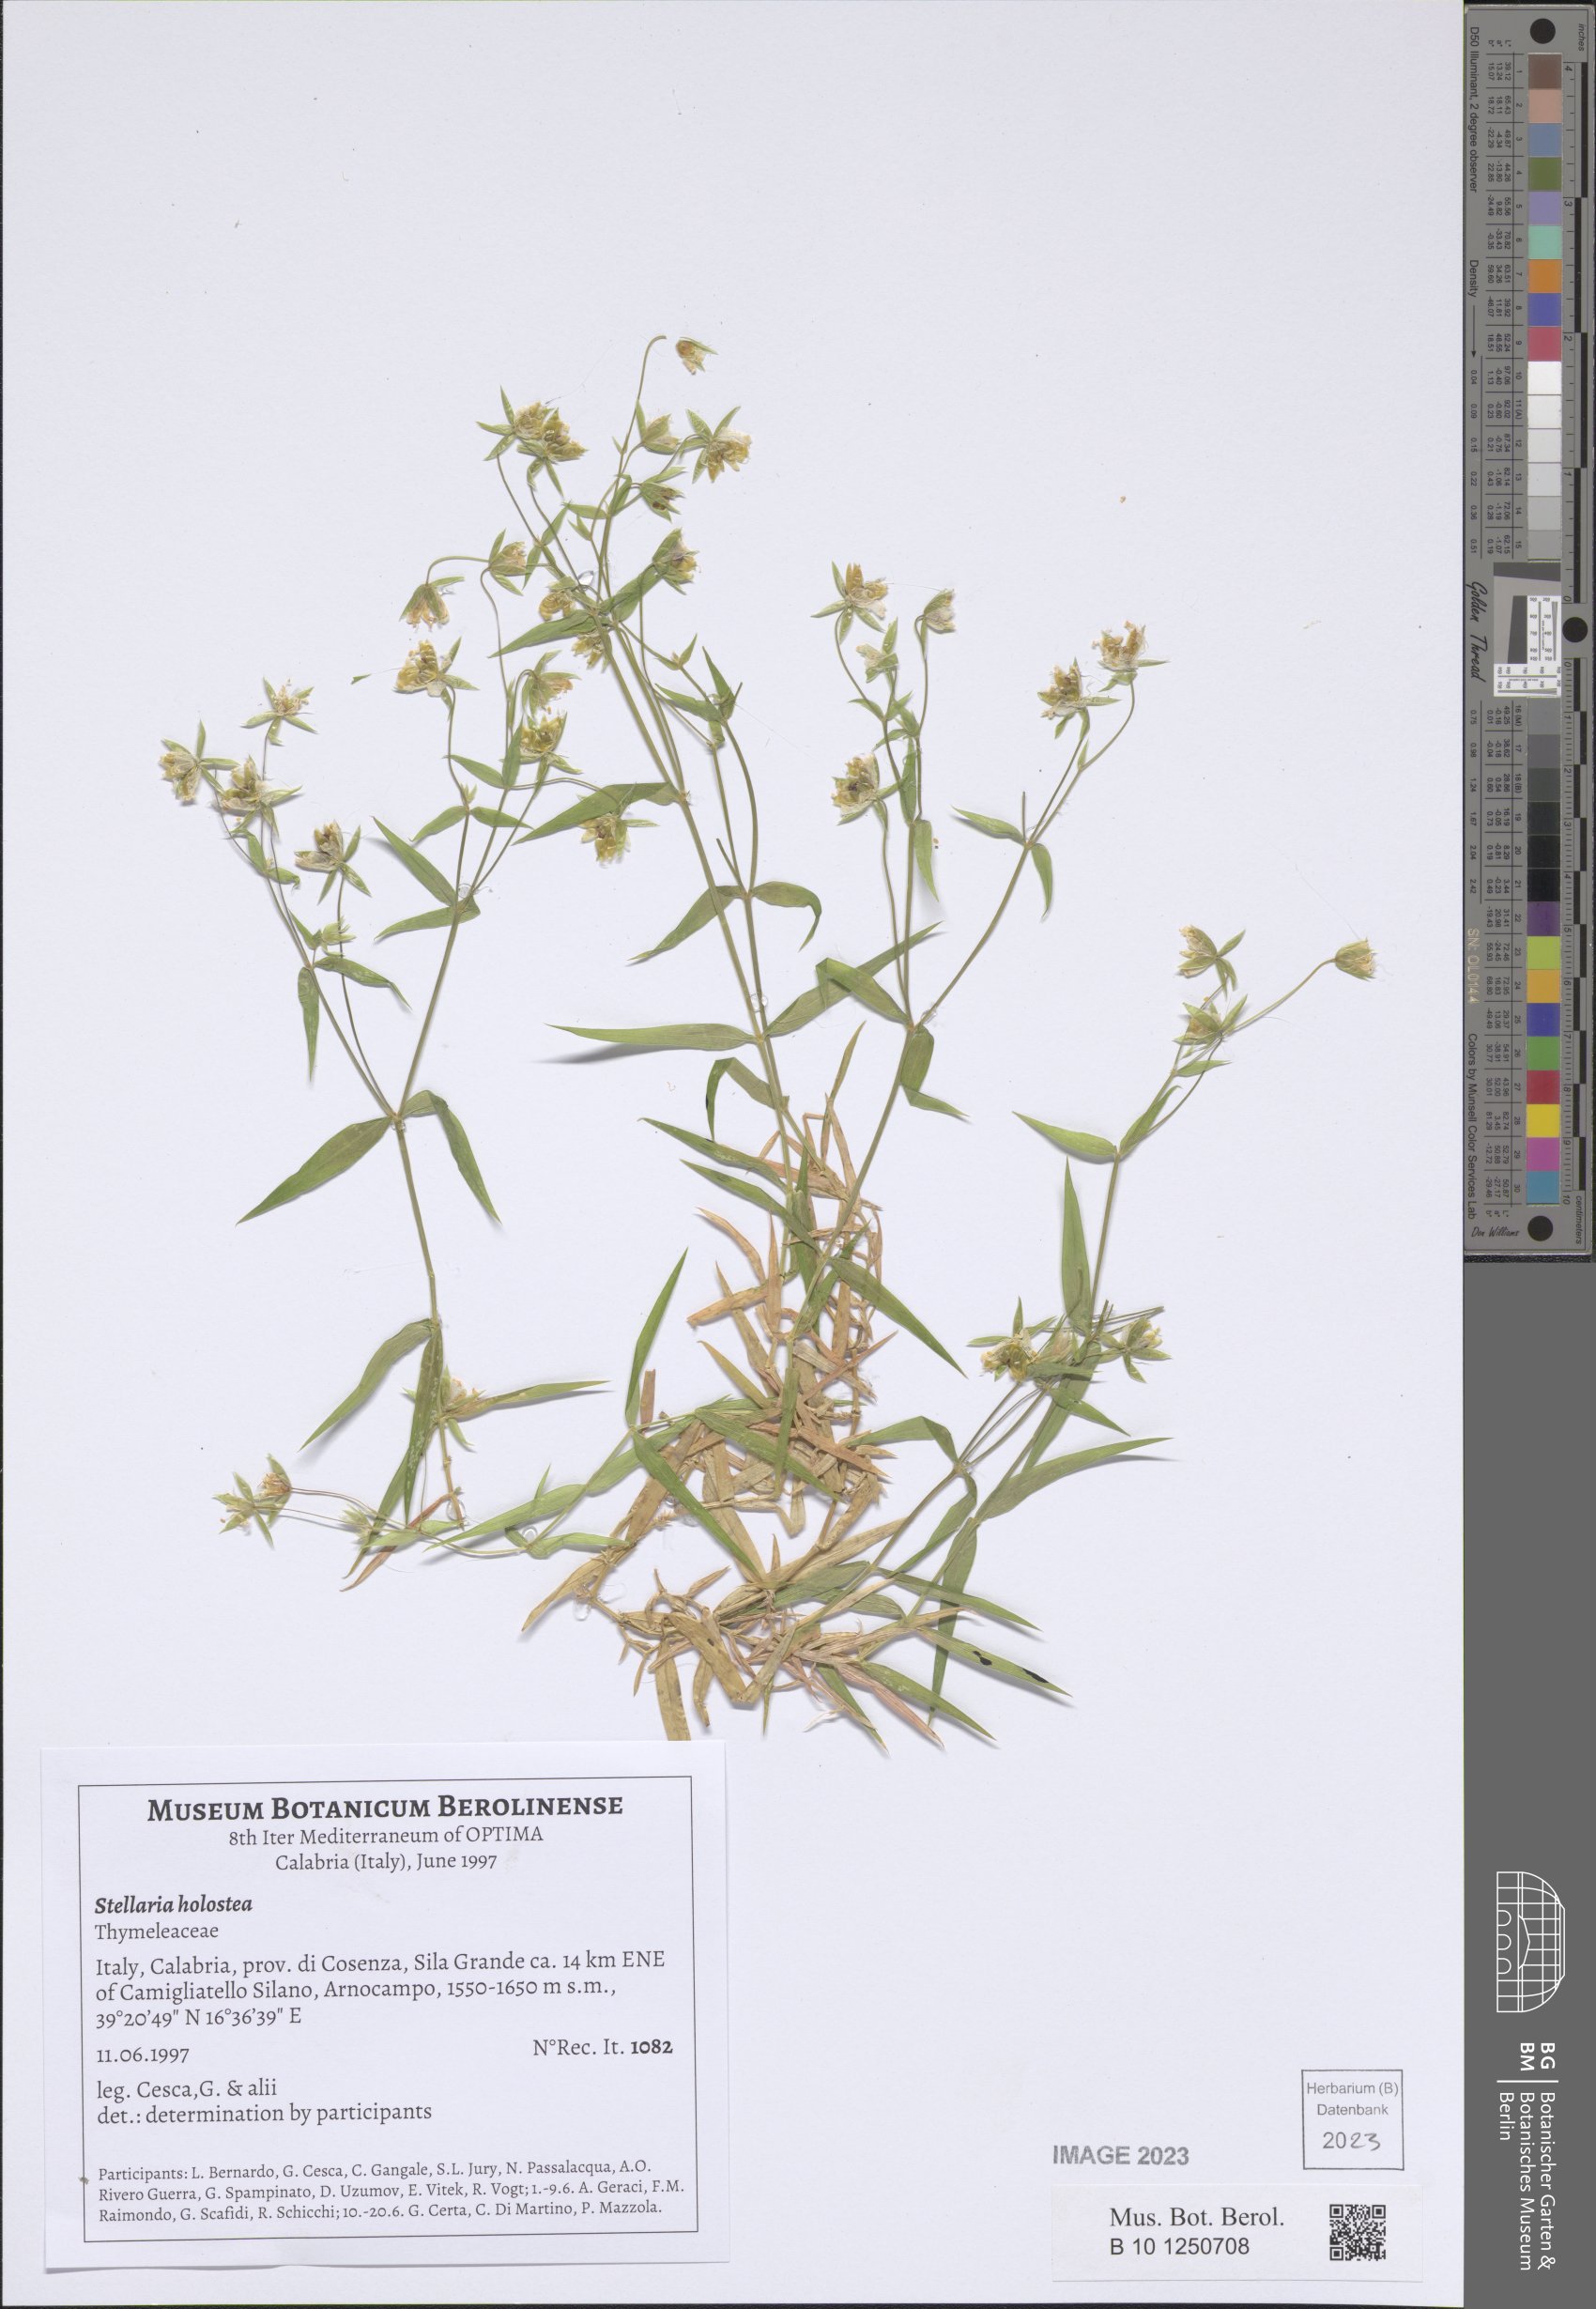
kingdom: Plantae
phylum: Tracheophyta
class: Magnoliopsida
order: Caryophyllales
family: Caryophyllaceae
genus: Rabelera
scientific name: Rabelera holostea
